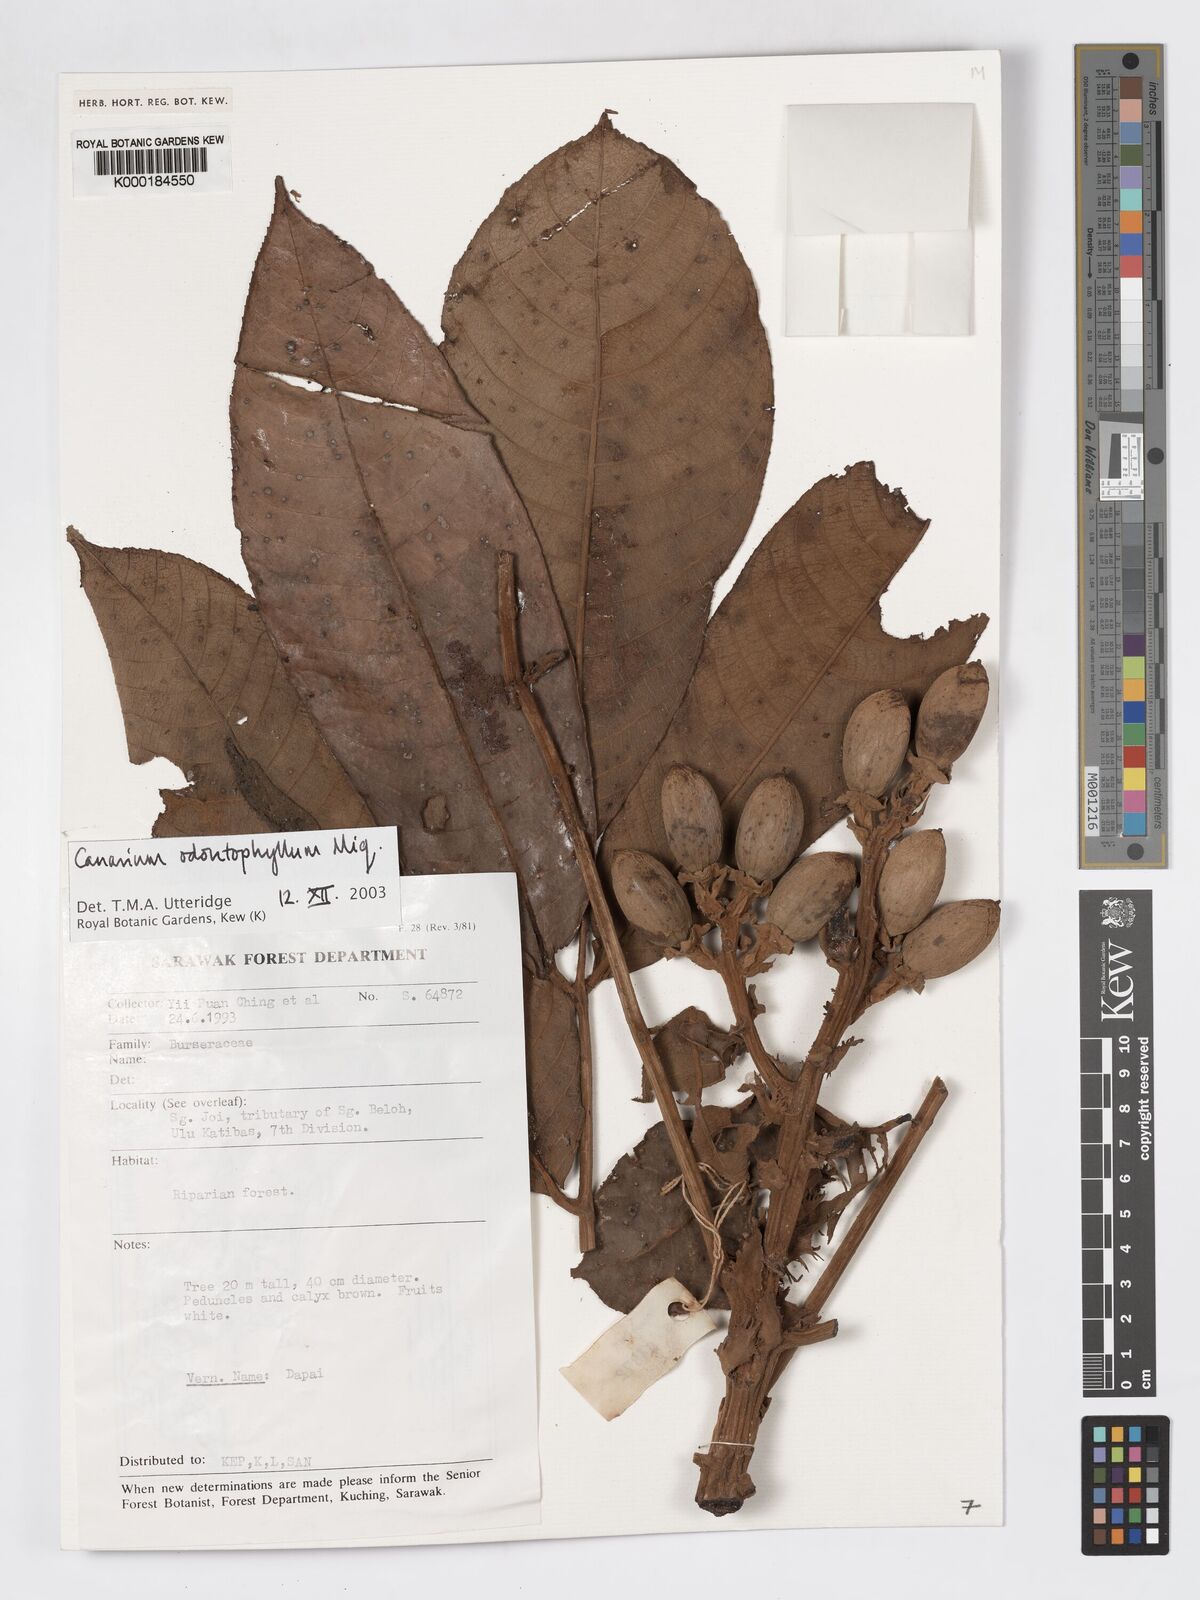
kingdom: Plantae
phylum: Tracheophyta
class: Magnoliopsida
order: Sapindales
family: Burseraceae
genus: Canarium
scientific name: Canarium odontophyllum
